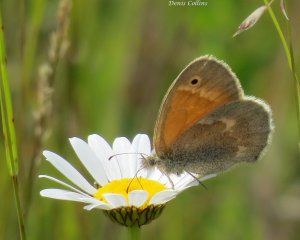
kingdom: Animalia
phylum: Arthropoda
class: Insecta
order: Lepidoptera
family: Nymphalidae
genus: Coenonympha
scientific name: Coenonympha tullia
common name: Large Heath
